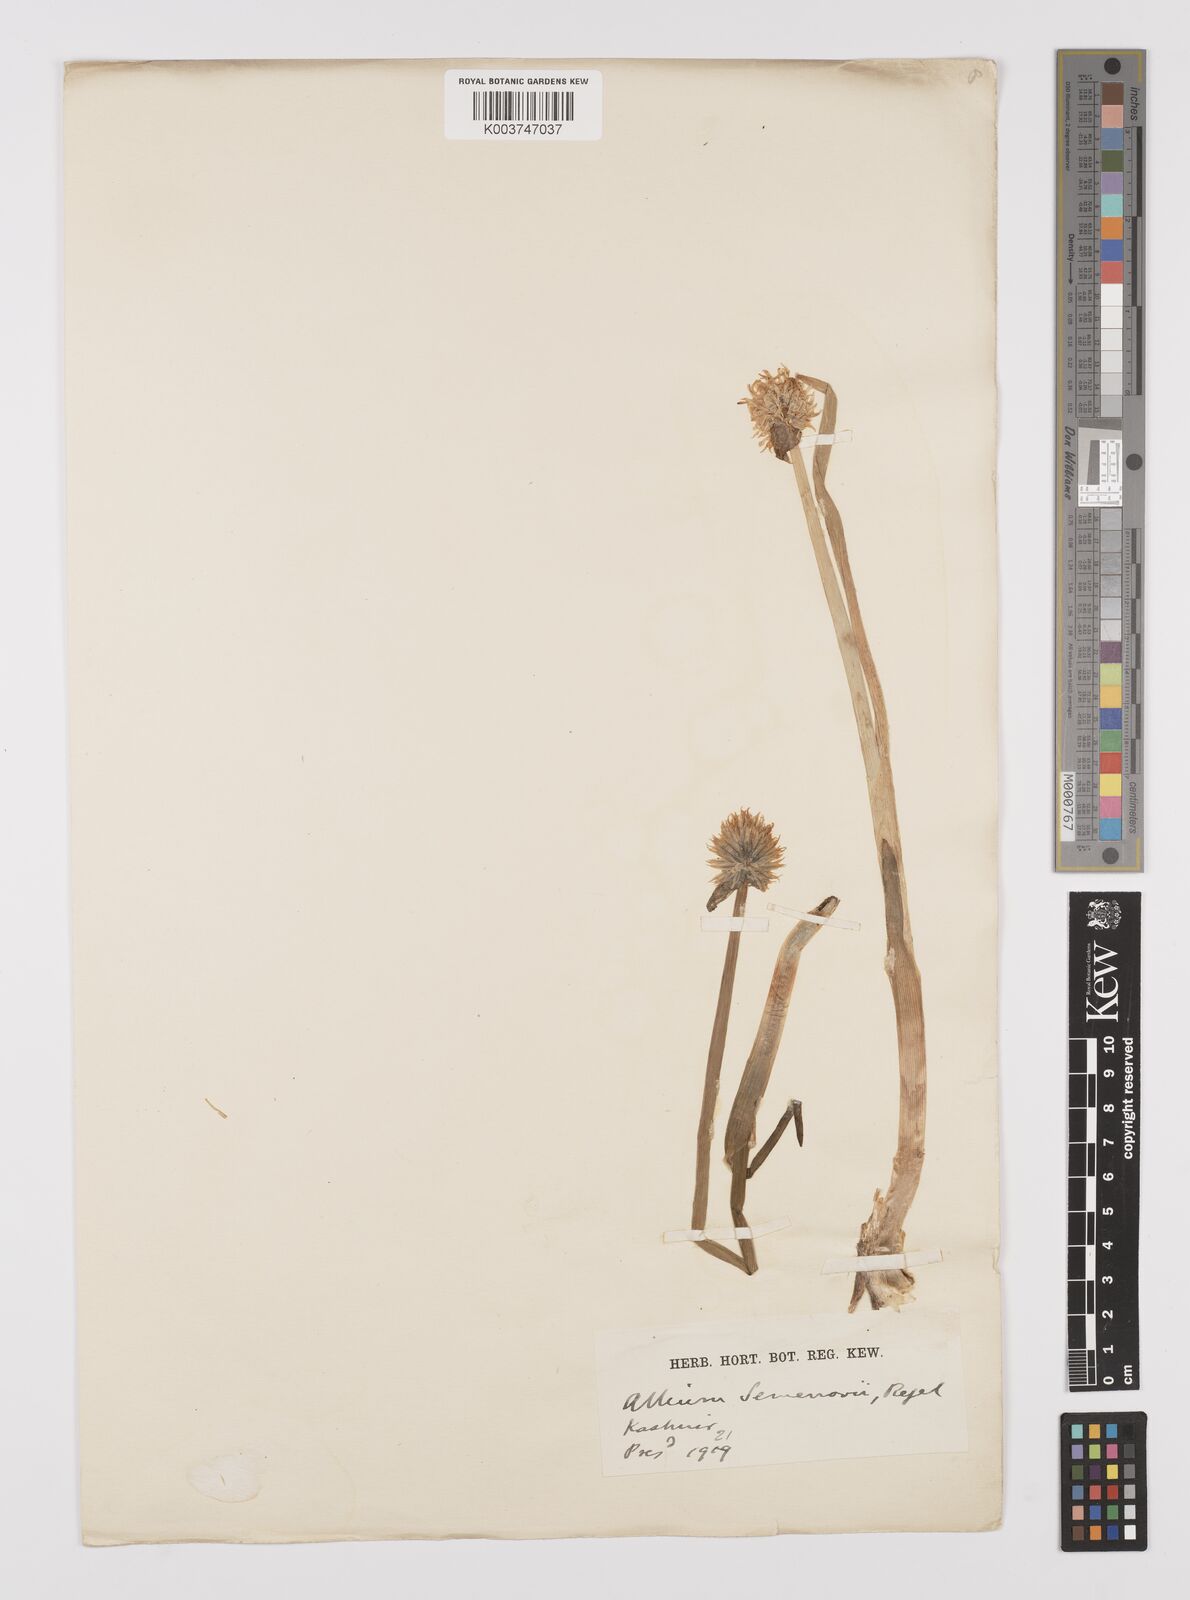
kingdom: Plantae
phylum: Tracheophyta
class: Liliopsida
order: Asparagales
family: Amaryllidaceae
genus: Allium
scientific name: Allium semenovii
